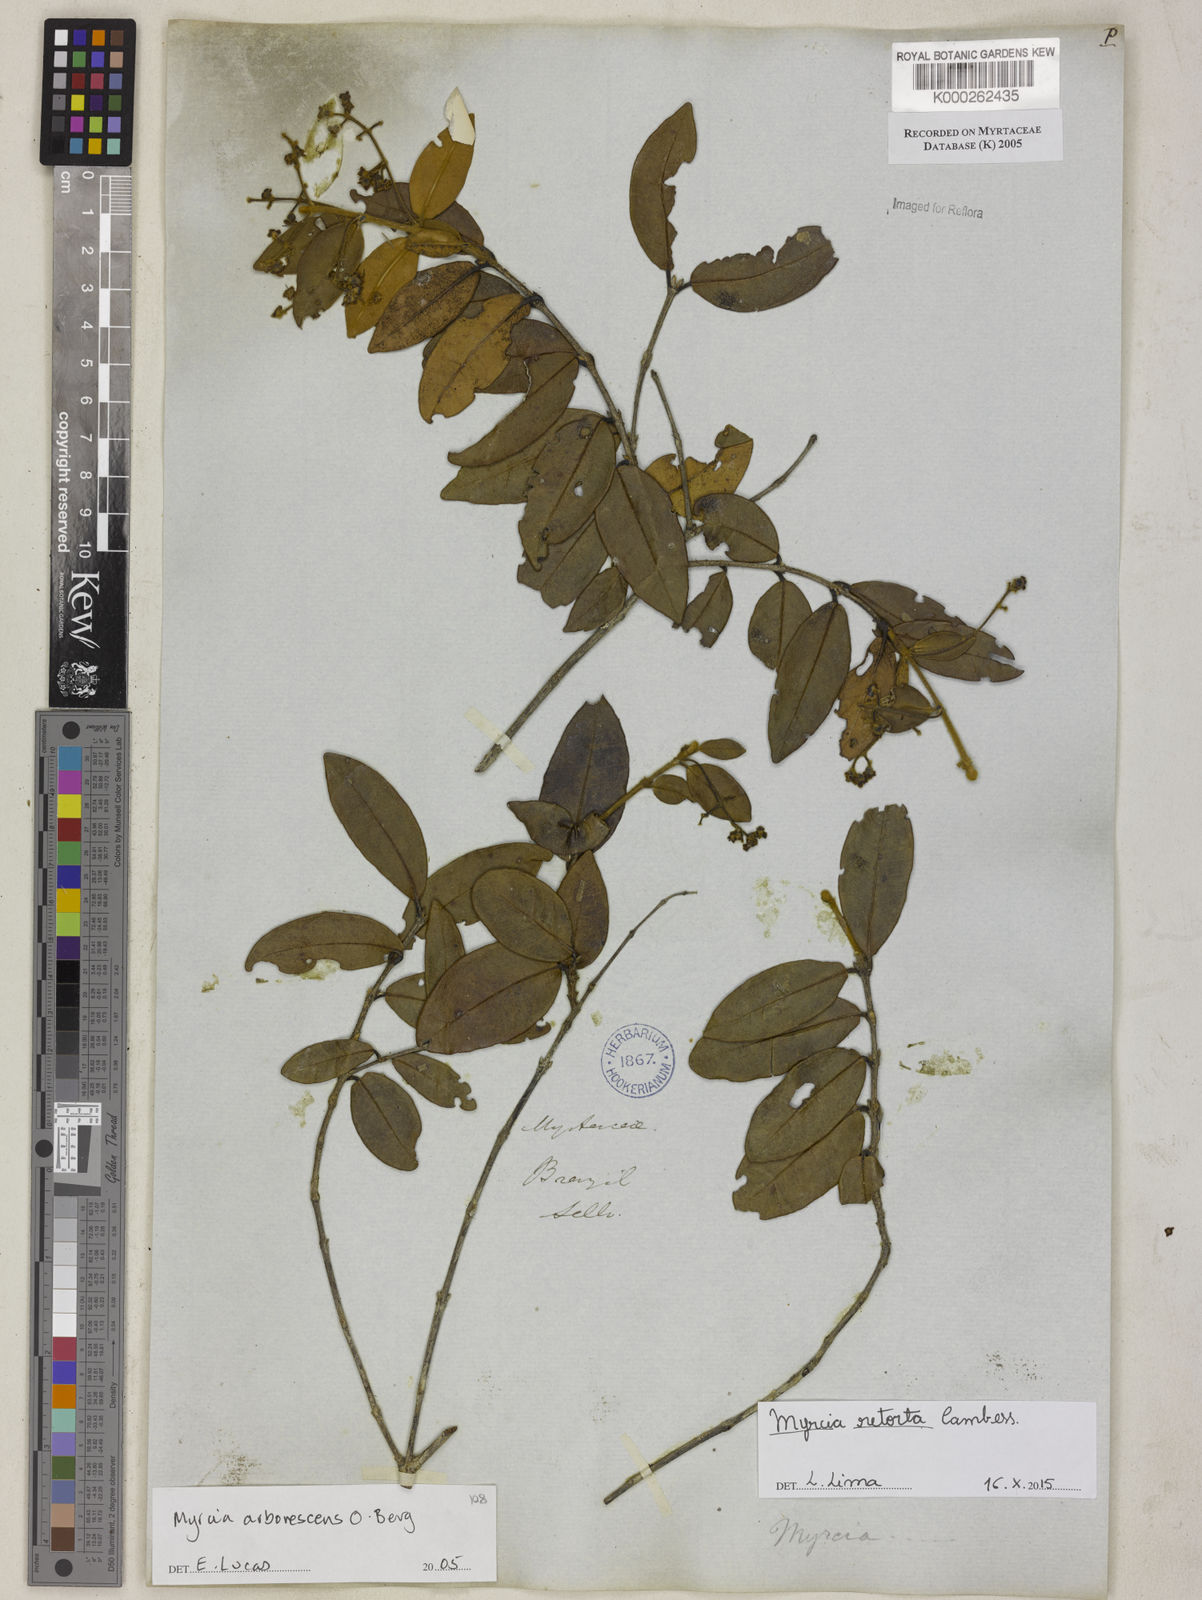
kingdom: Plantae
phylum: Tracheophyta
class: Magnoliopsida
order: Myrtales
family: Myrtaceae
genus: Myrcia
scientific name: Myrcia retorta
